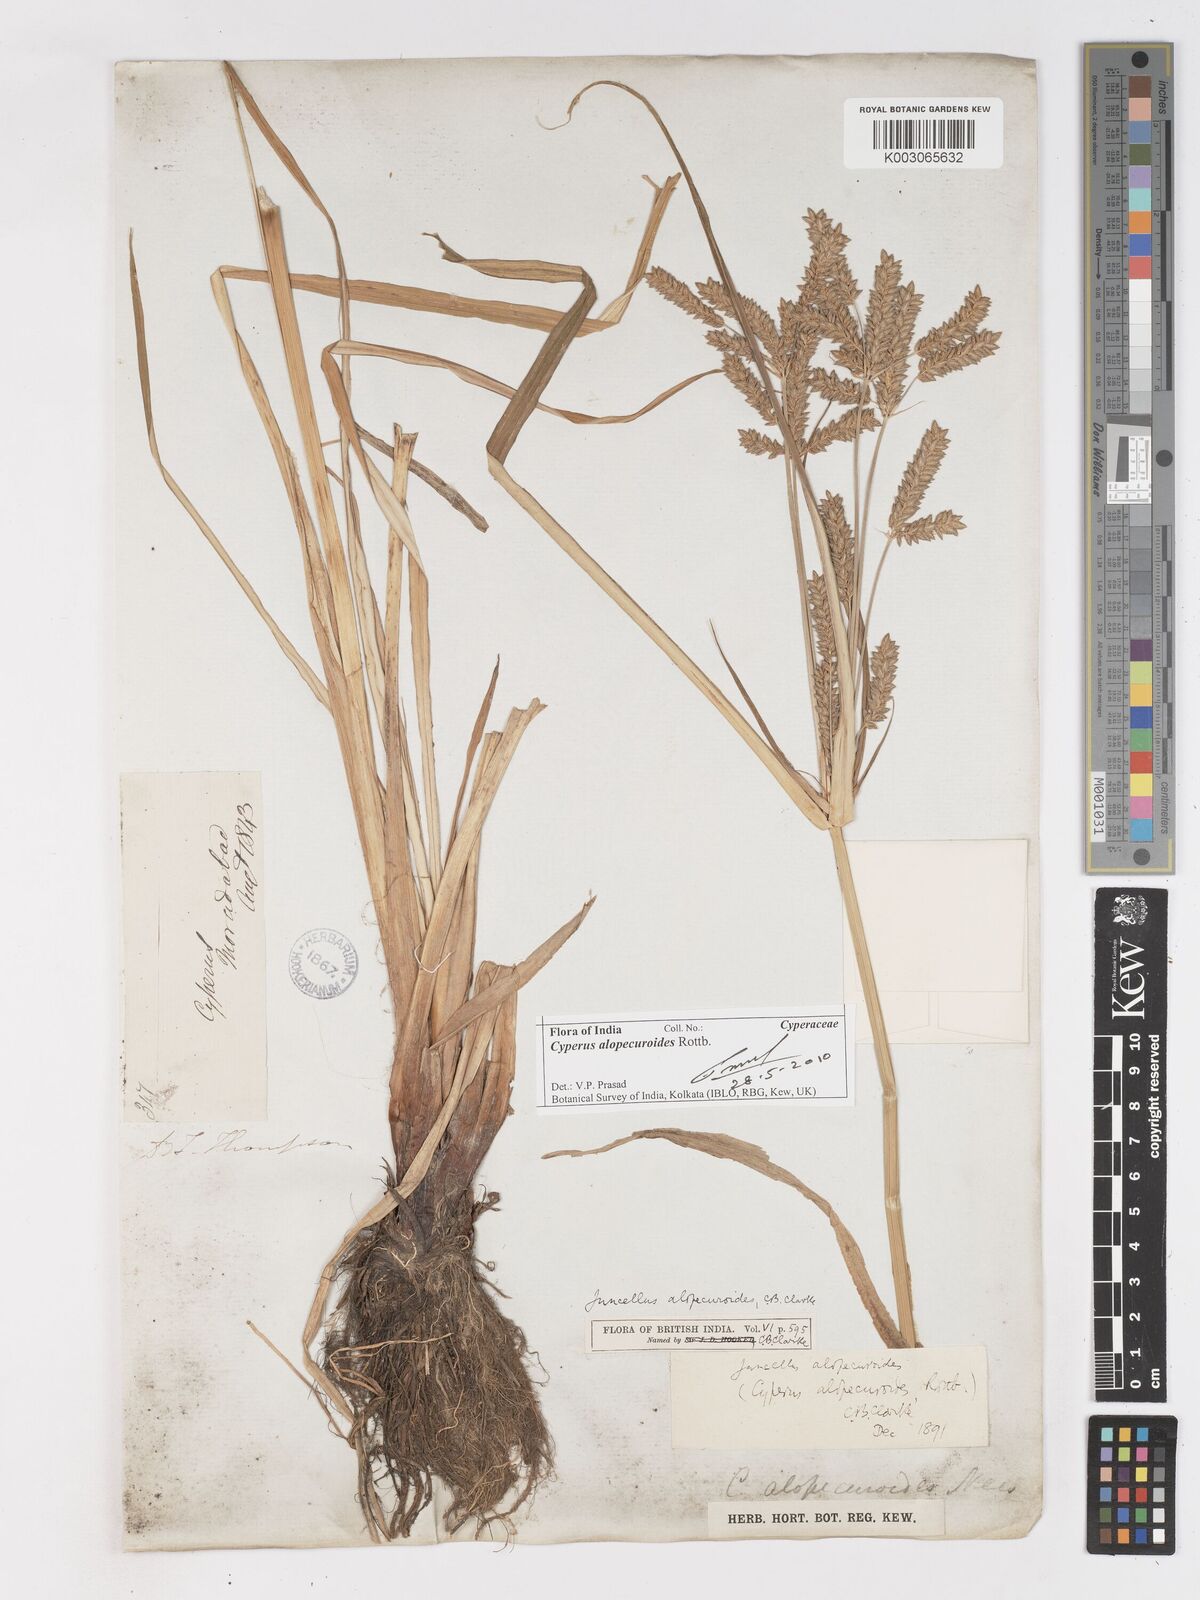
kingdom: Plantae
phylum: Tracheophyta
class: Liliopsida
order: Poales
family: Cyperaceae
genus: Cyperus
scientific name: Cyperus alopecuroides
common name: Foxtail flatsedge
